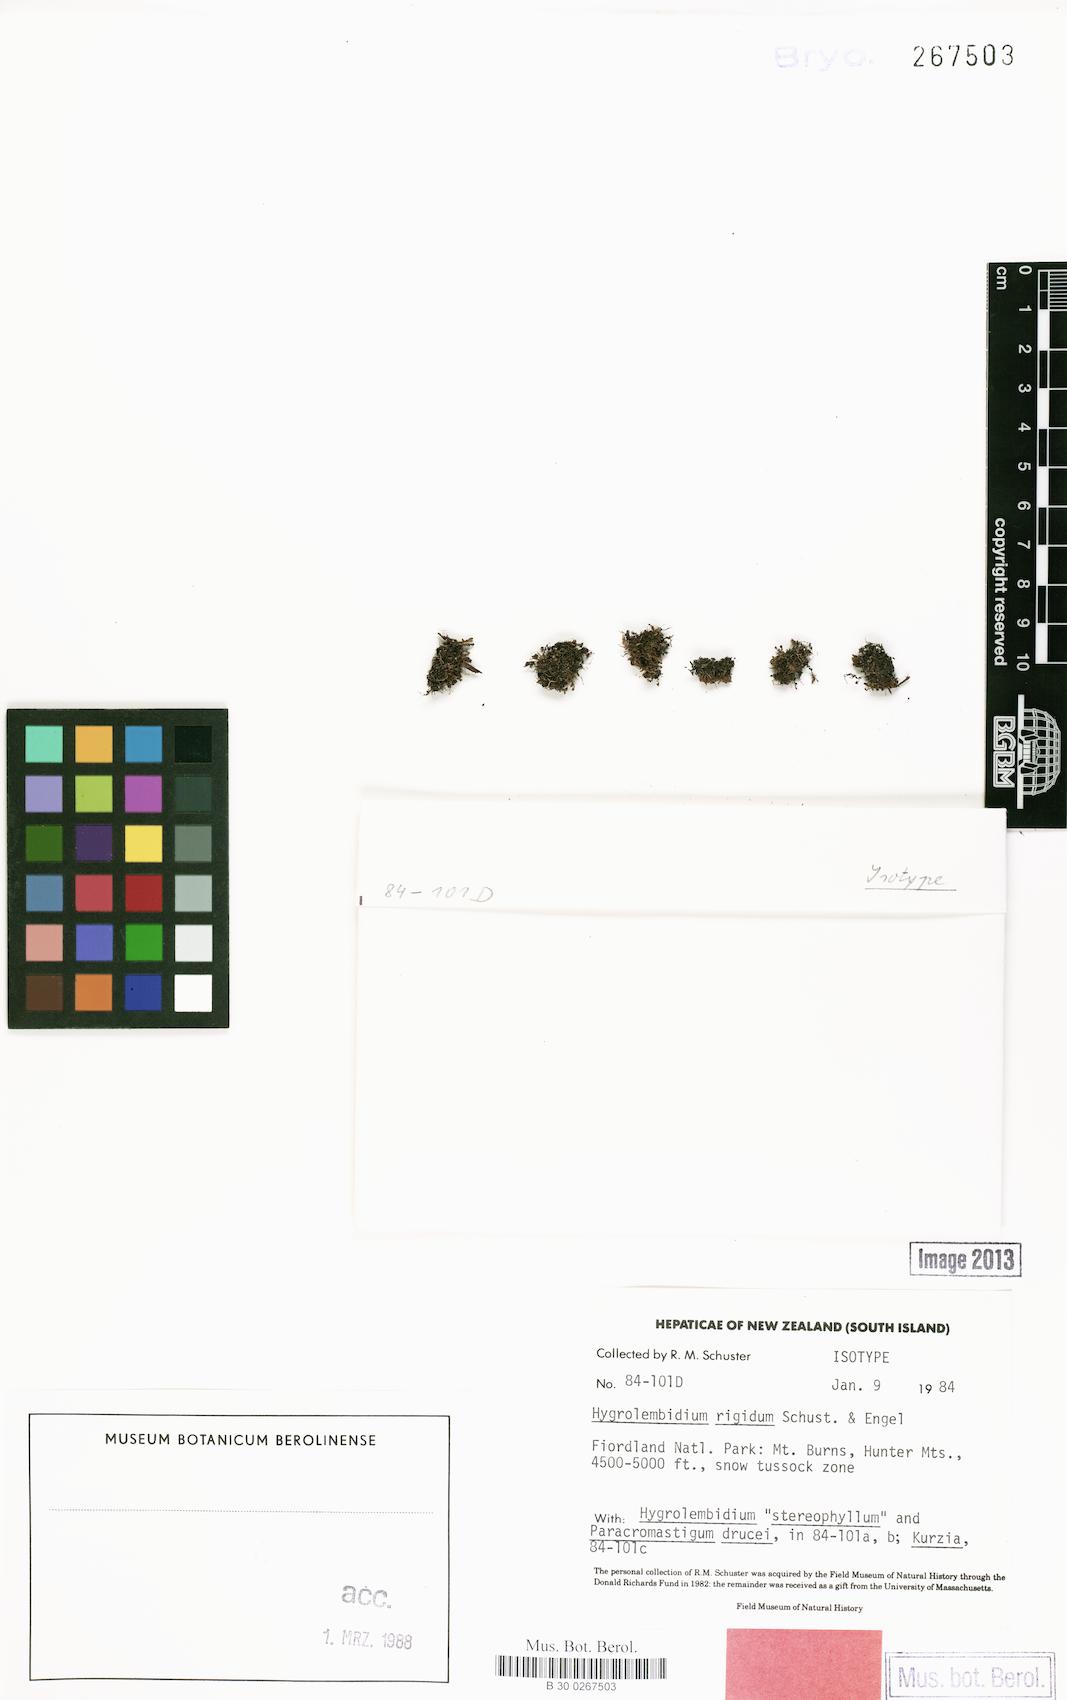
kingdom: Plantae
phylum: Marchantiophyta
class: Jungermanniopsida
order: Jungermanniales
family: Lepidoziaceae
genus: Hygrolembidium
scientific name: Hygrolembidium rigidum
